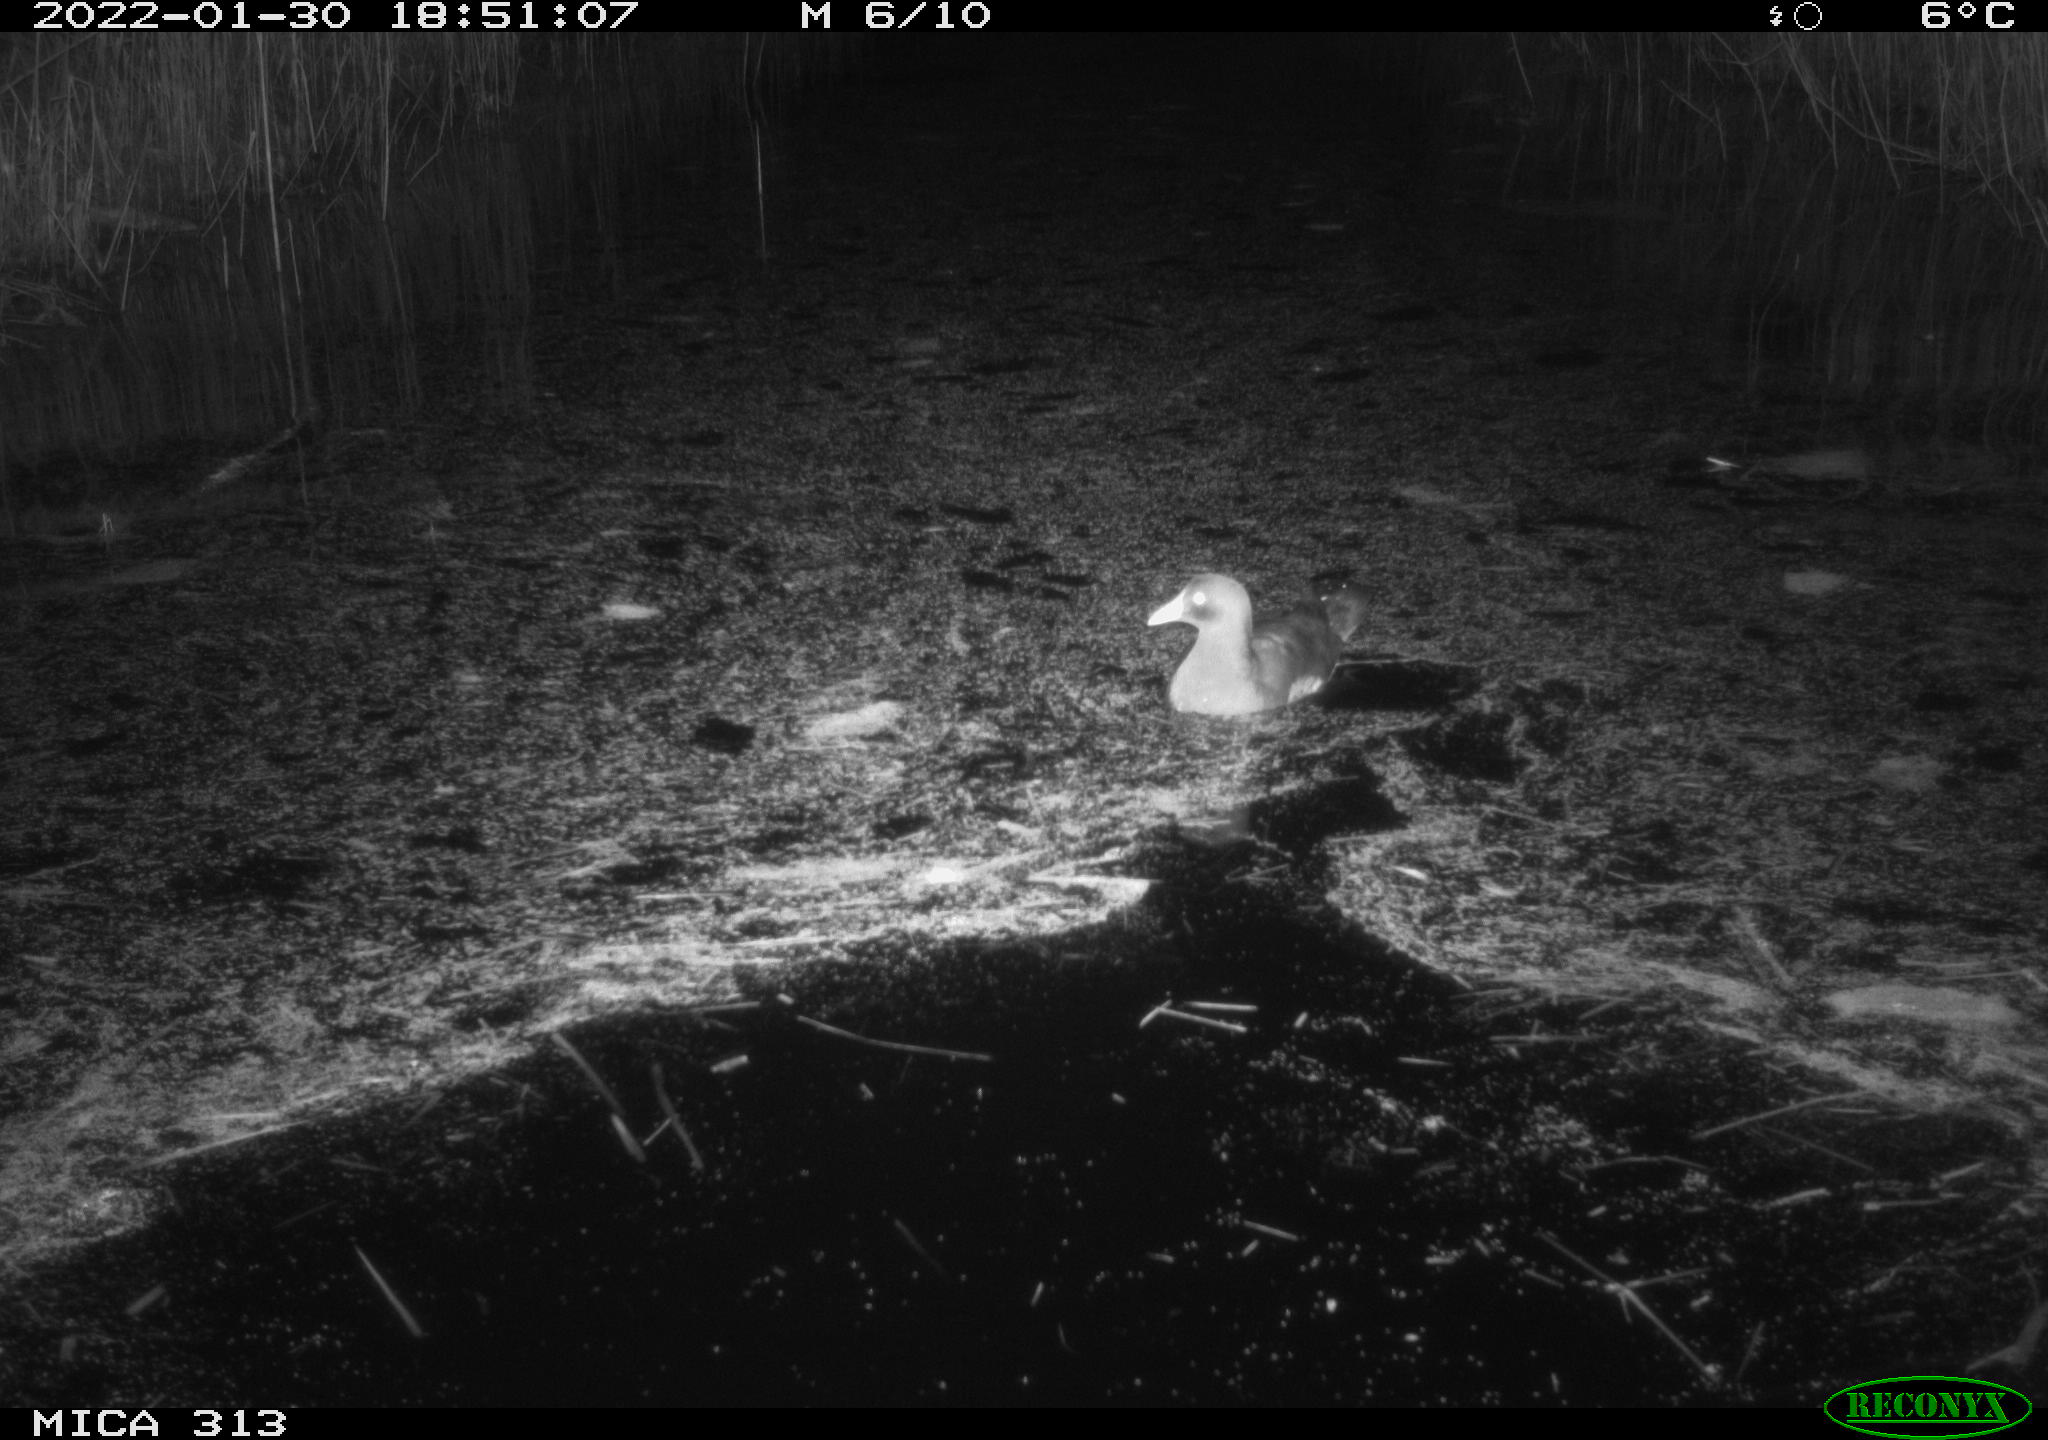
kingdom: Animalia
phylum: Chordata
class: Aves
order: Gruiformes
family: Rallidae
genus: Gallinula
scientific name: Gallinula chloropus
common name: Common moorhen
